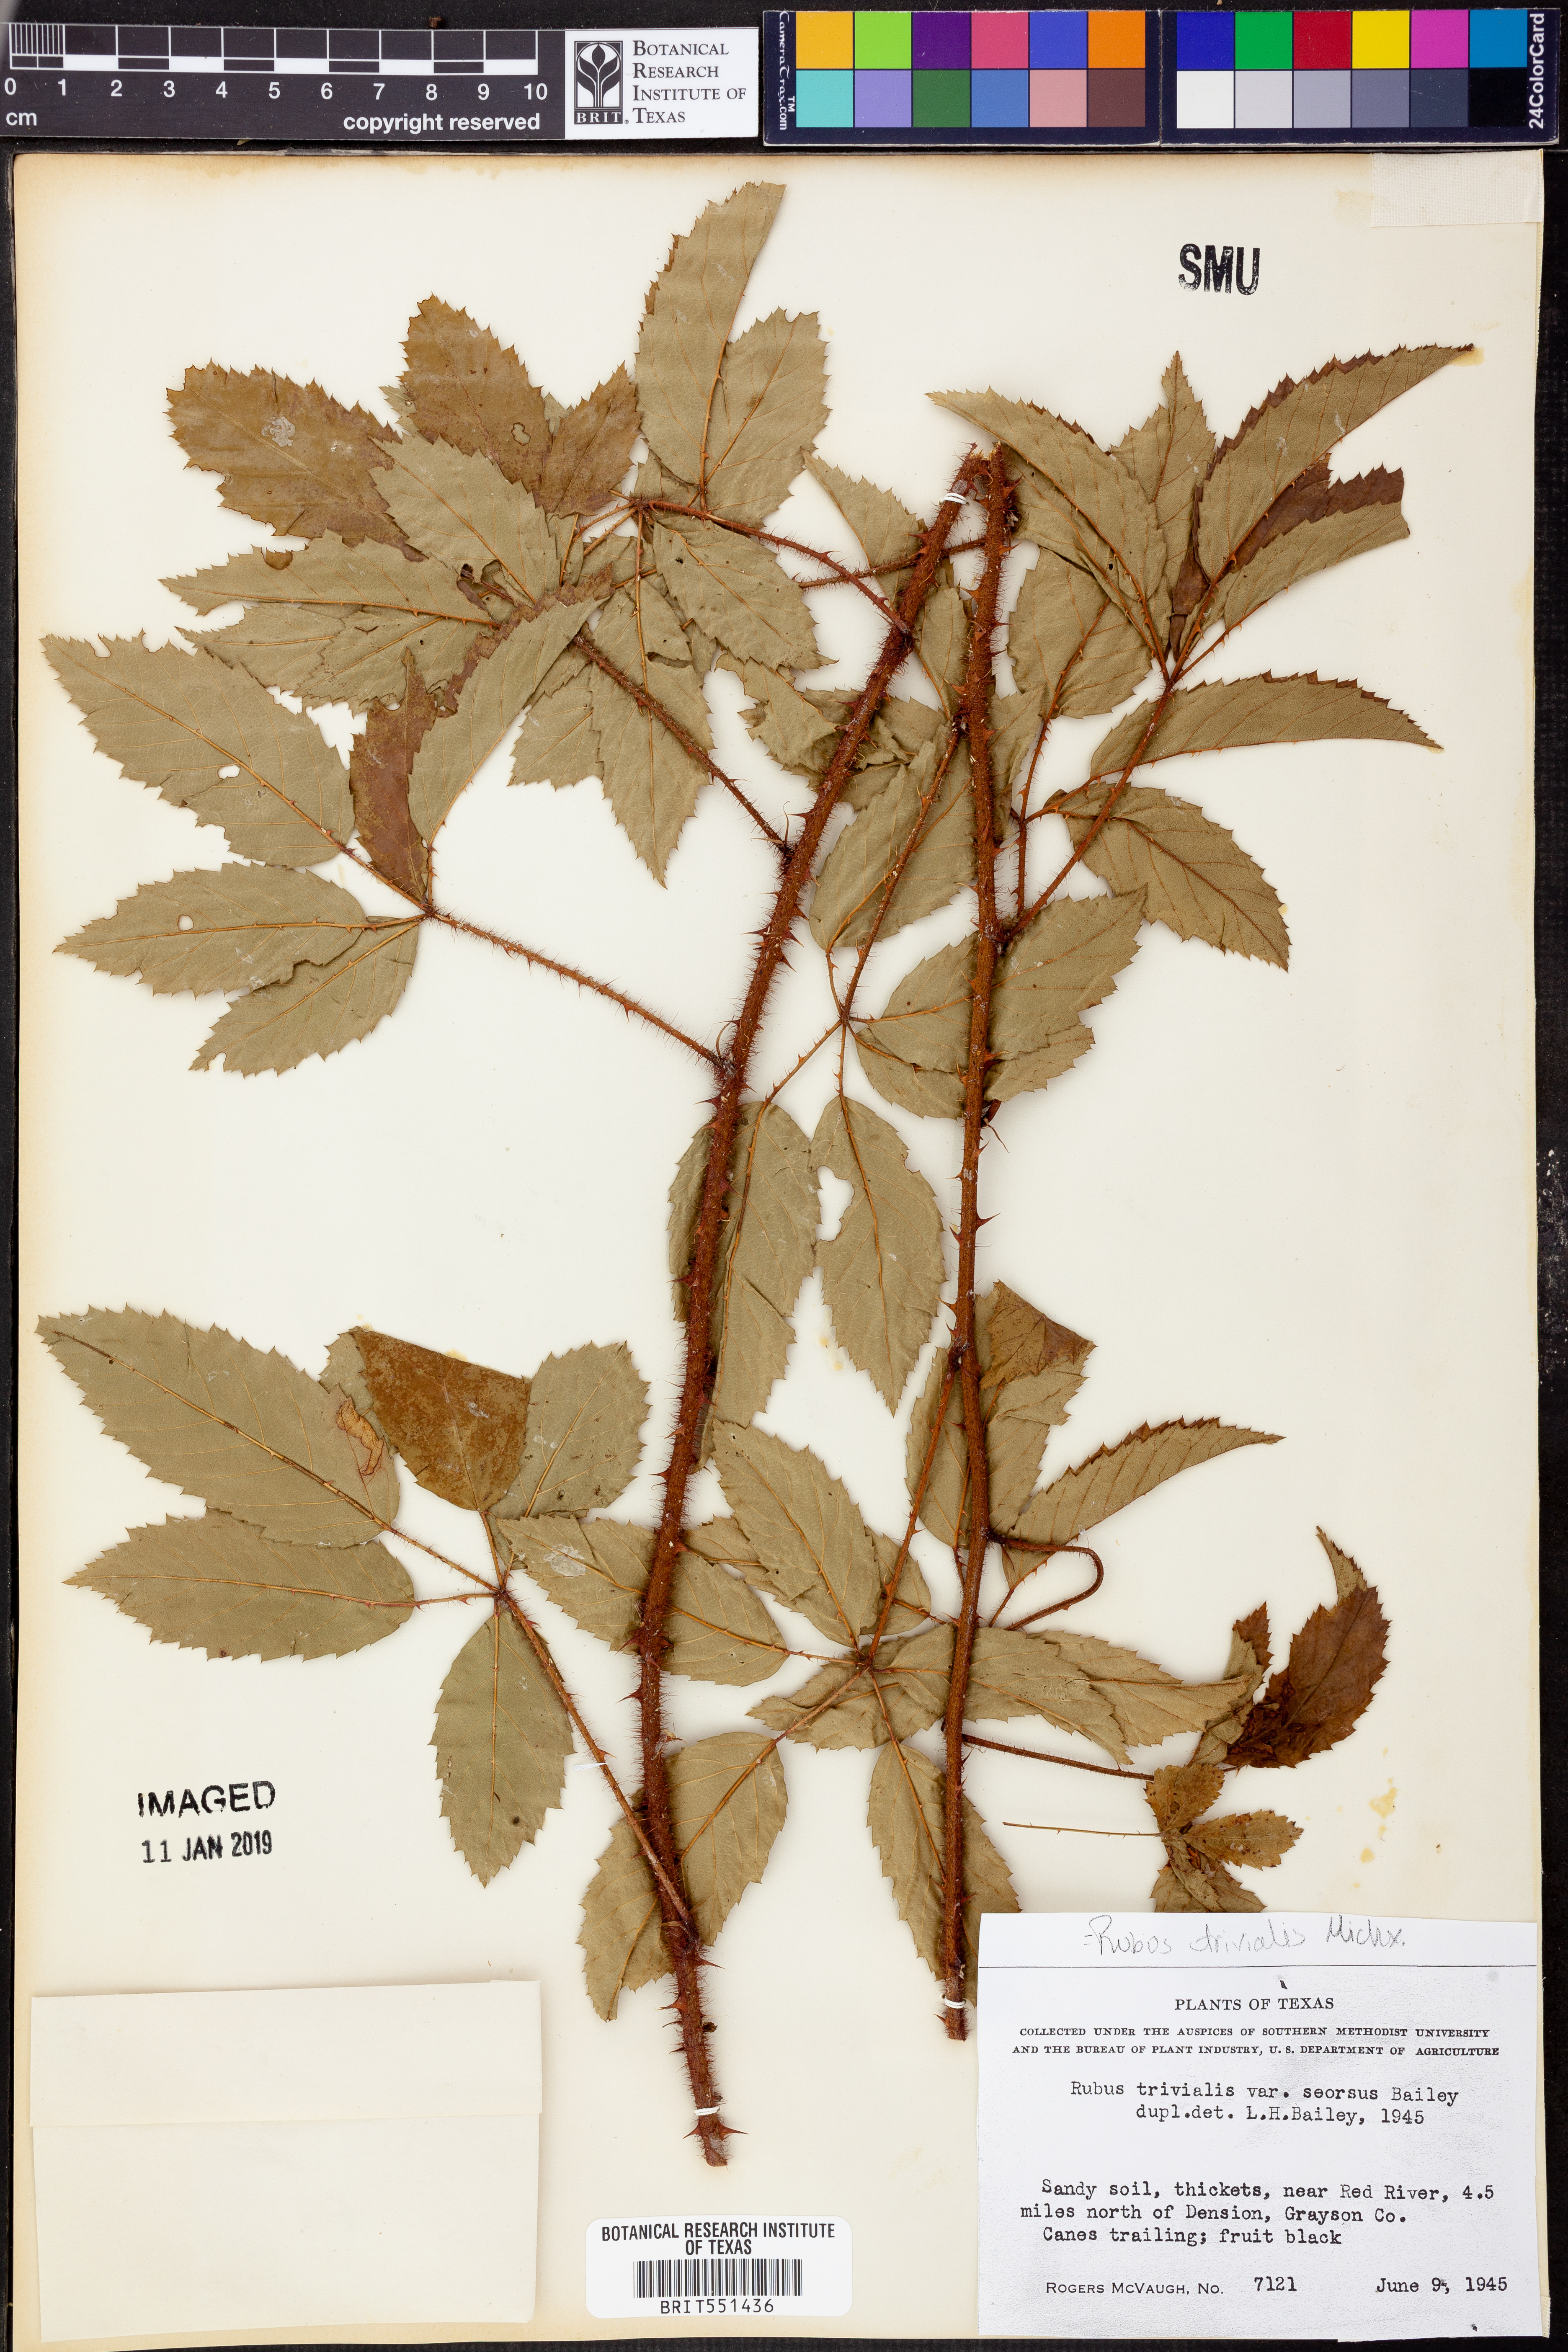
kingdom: Plantae
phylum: Tracheophyta
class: Magnoliopsida
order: Rosales
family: Rosaceae
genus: Rubus
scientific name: Rubus trivialis
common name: Southern dewberry
